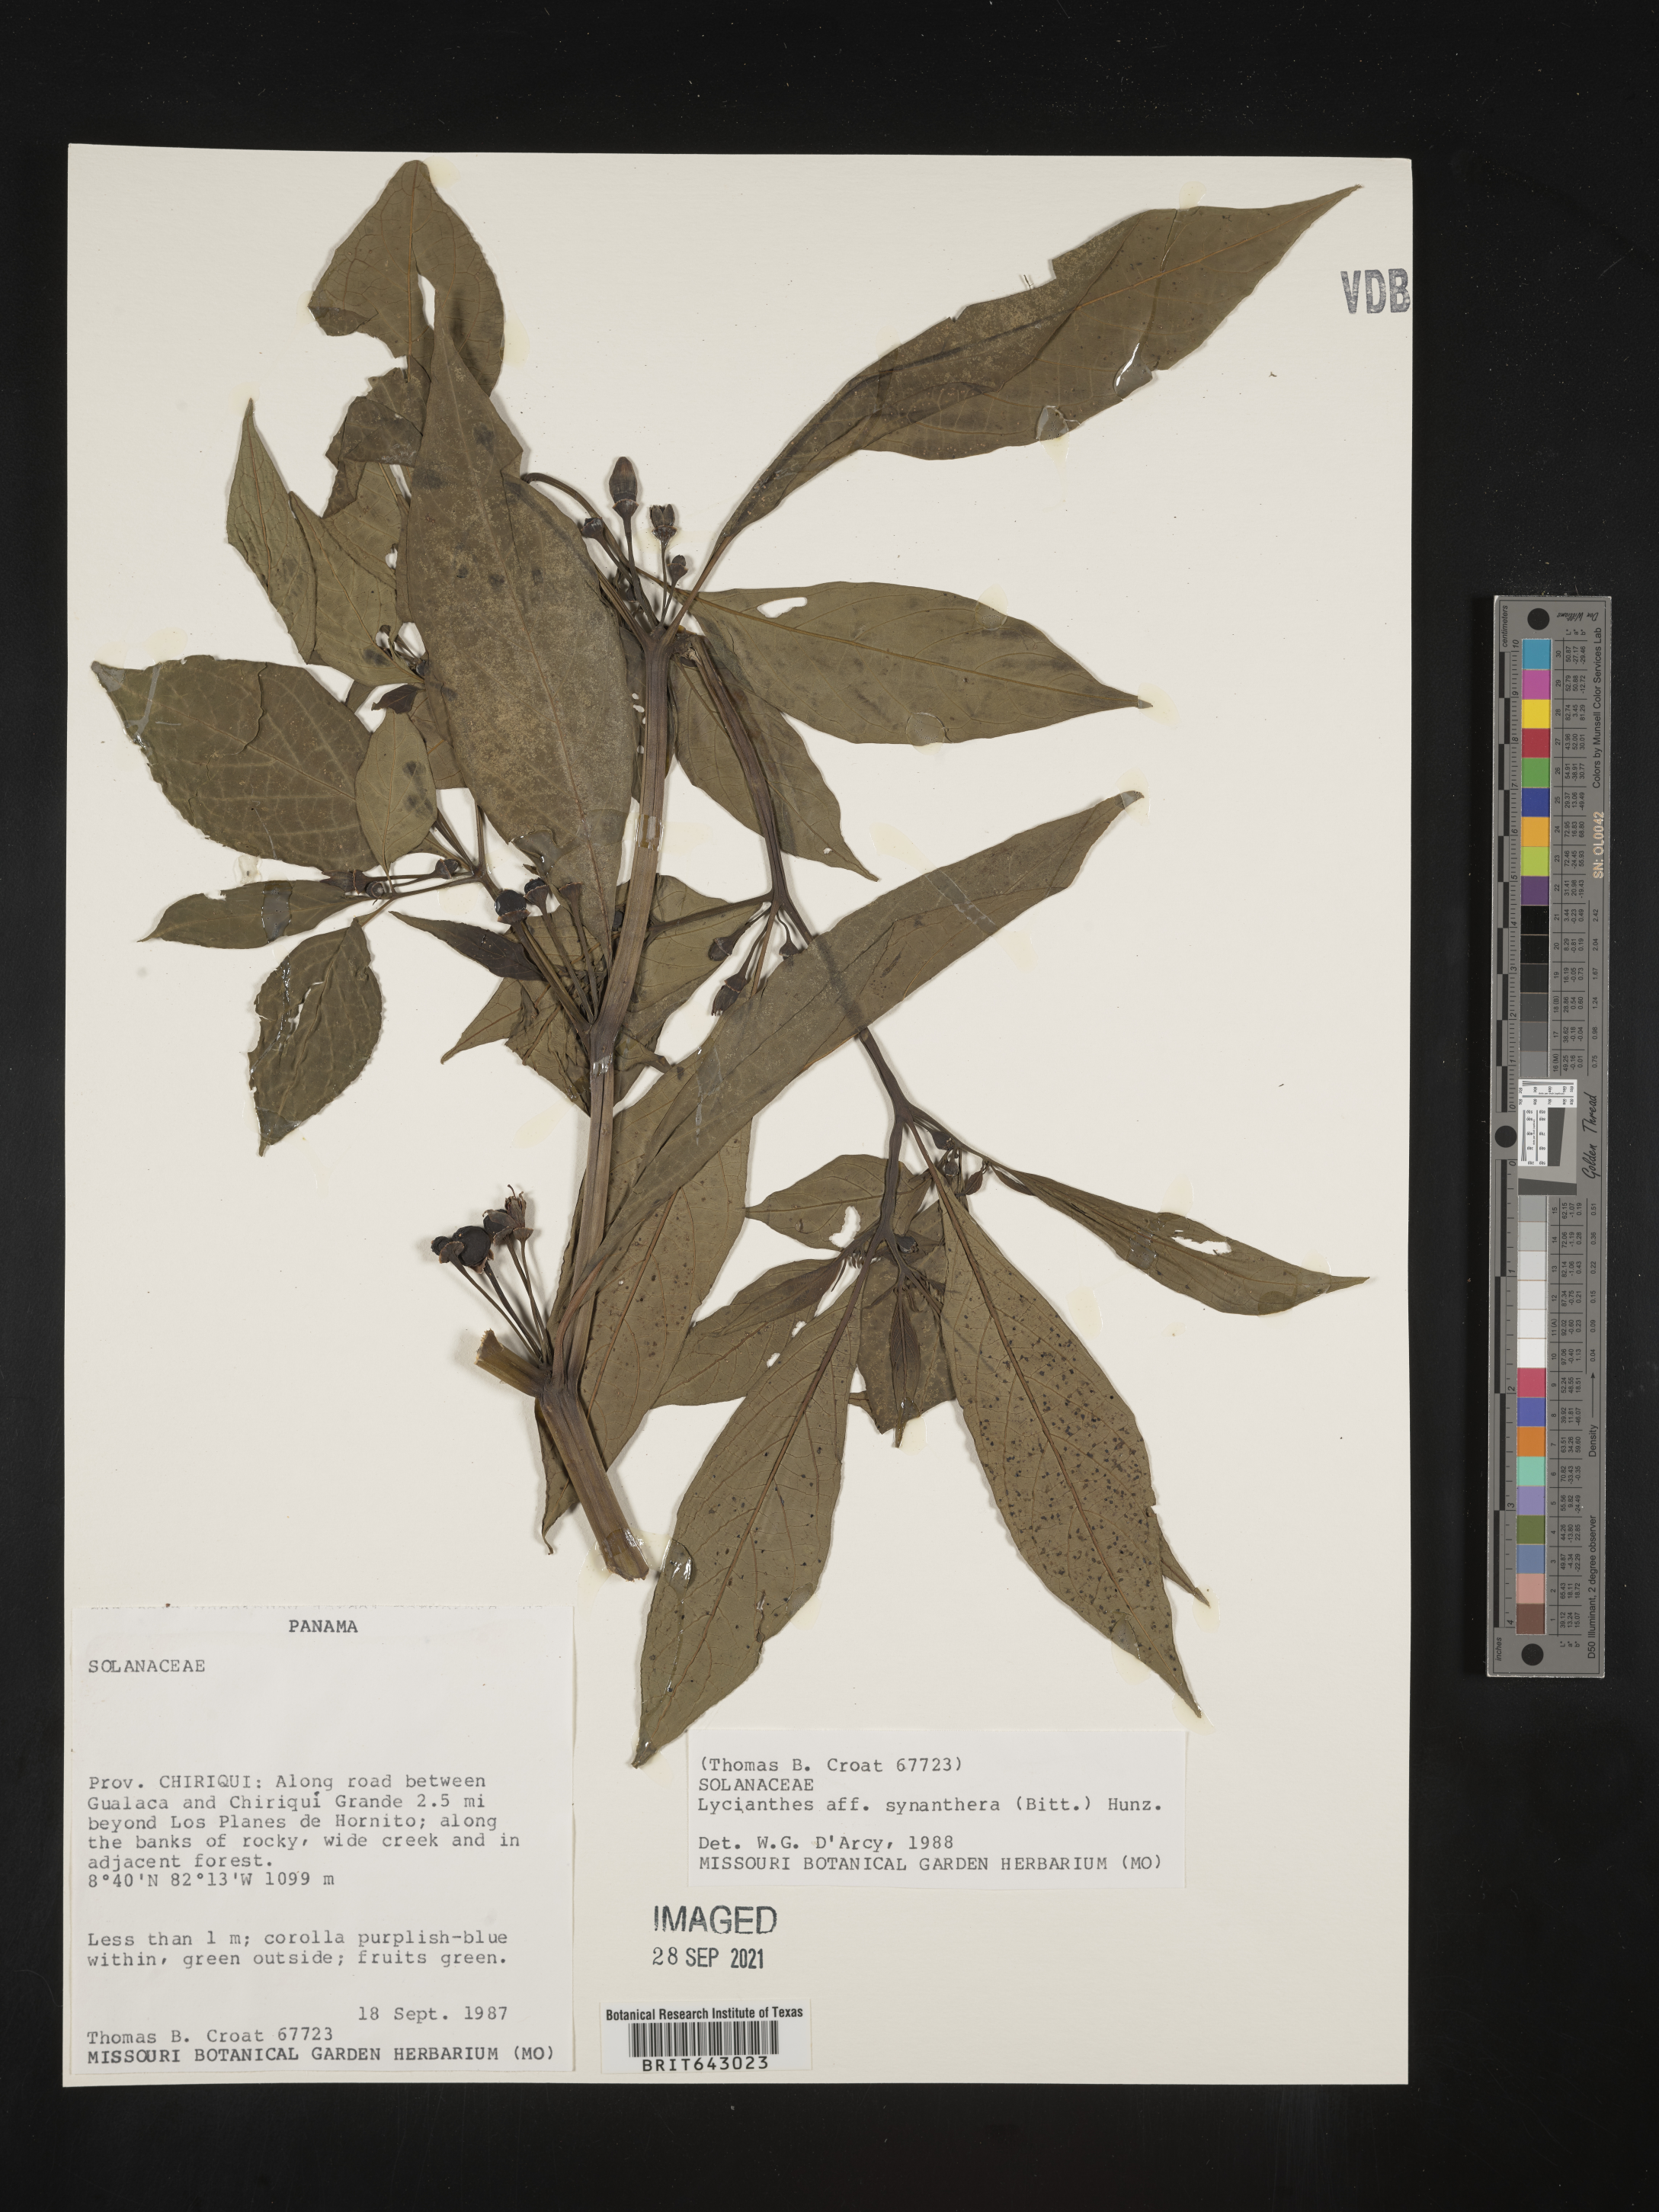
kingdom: Plantae
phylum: Tracheophyta
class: Magnoliopsida
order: Solanales
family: Solanaceae
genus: Lycianthes
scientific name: Lycianthes
